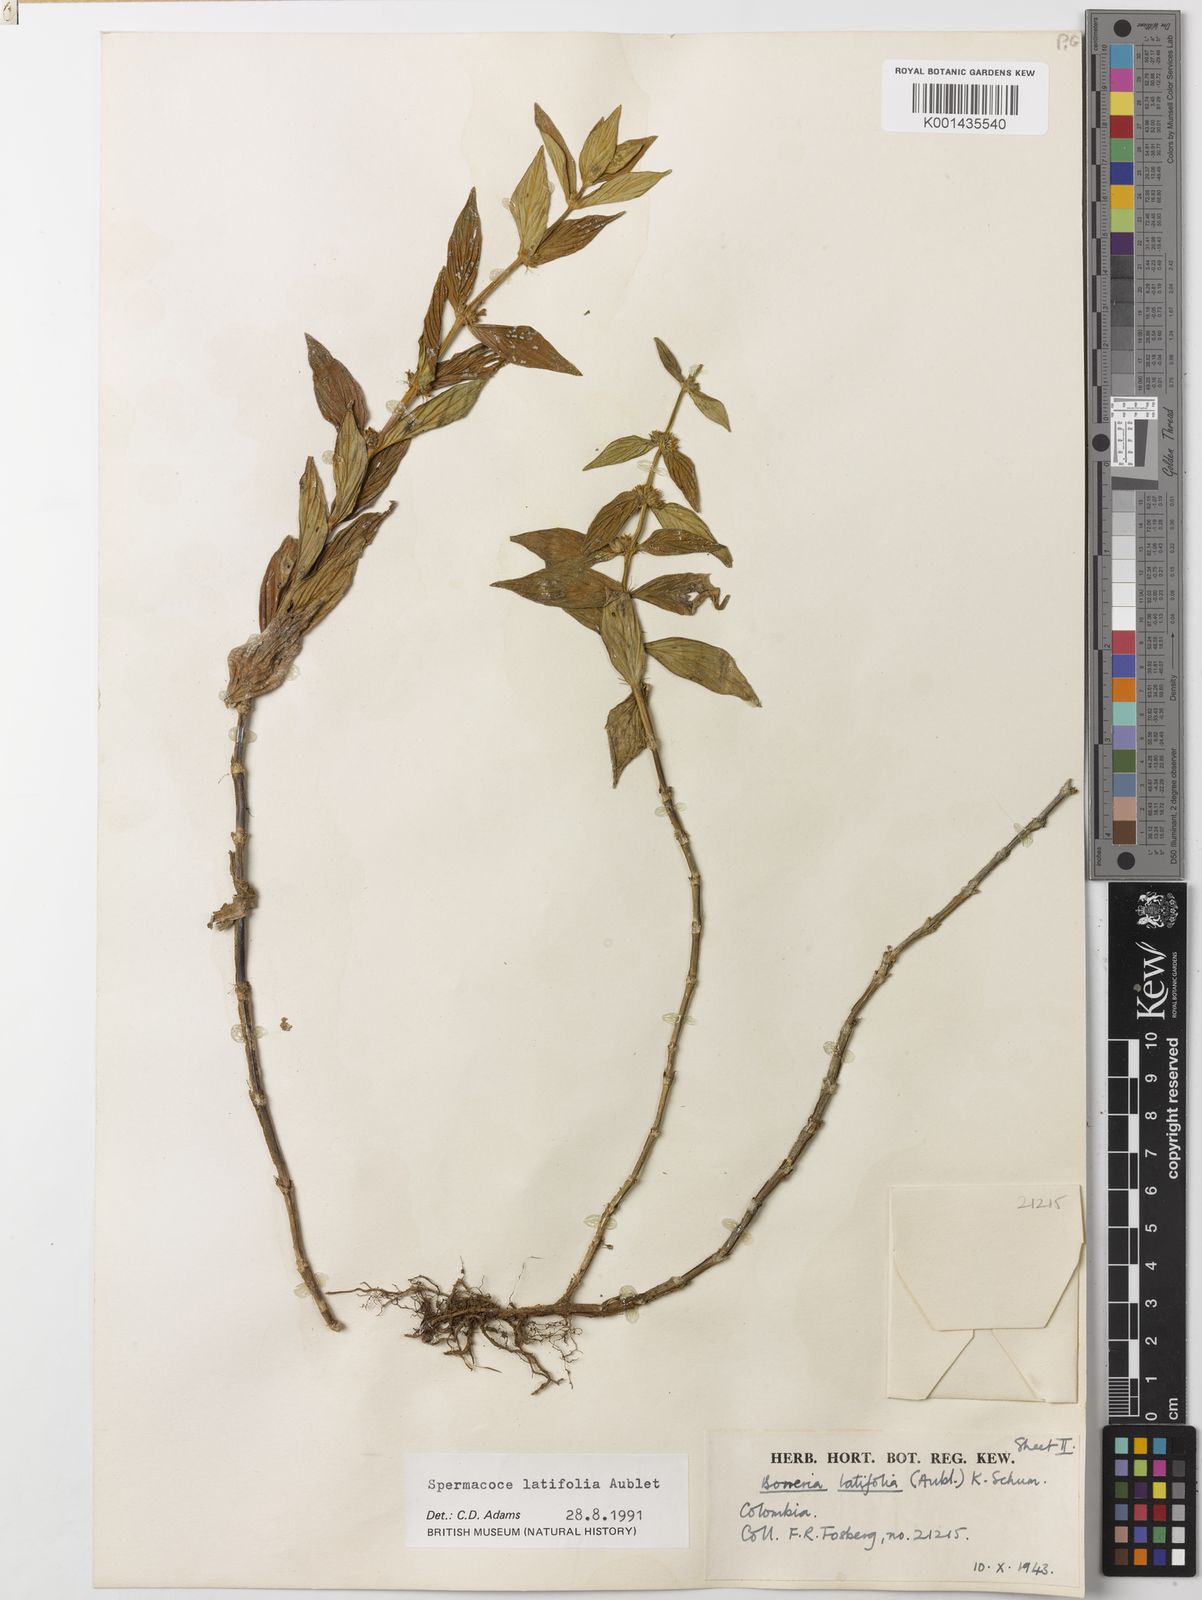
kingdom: Plantae
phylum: Tracheophyta
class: Magnoliopsida
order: Gentianales
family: Rubiaceae
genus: Spermacoce
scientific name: Spermacoce latifolia
